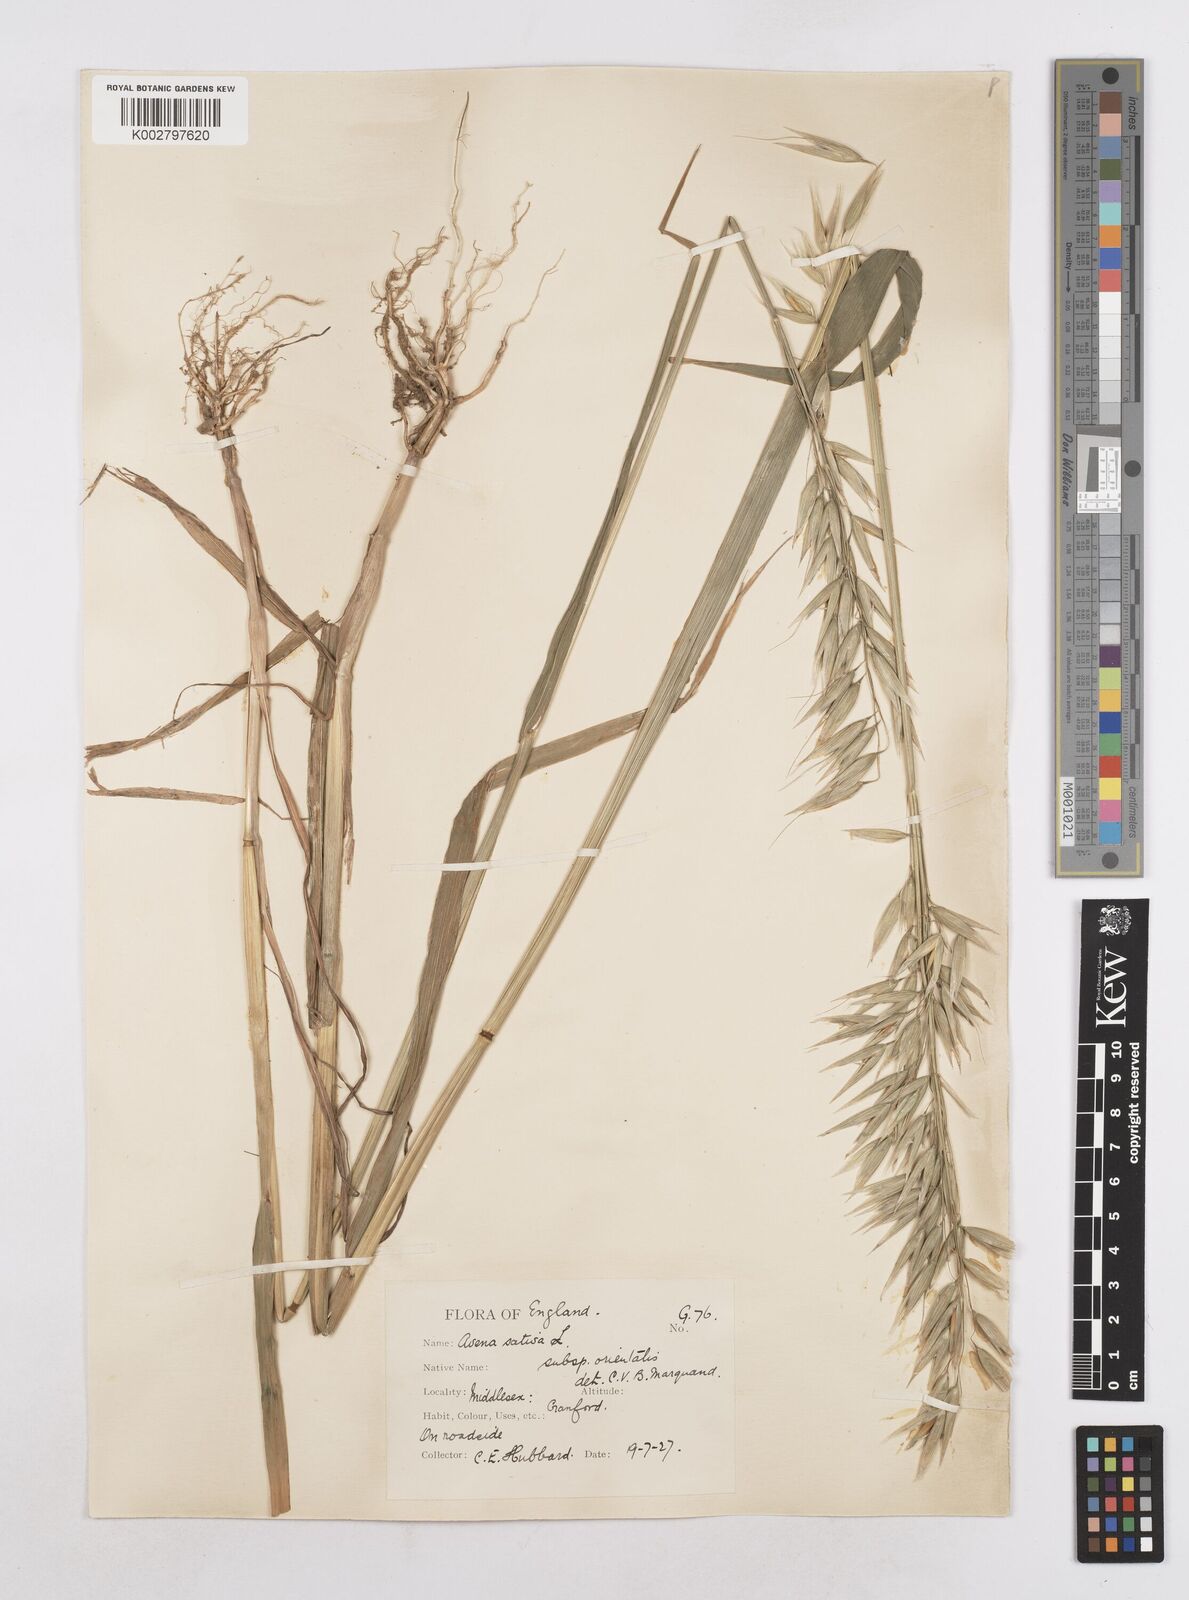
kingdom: Plantae
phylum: Tracheophyta
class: Liliopsida
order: Poales
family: Poaceae
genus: Avena
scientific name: Avena sativa
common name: Oat
